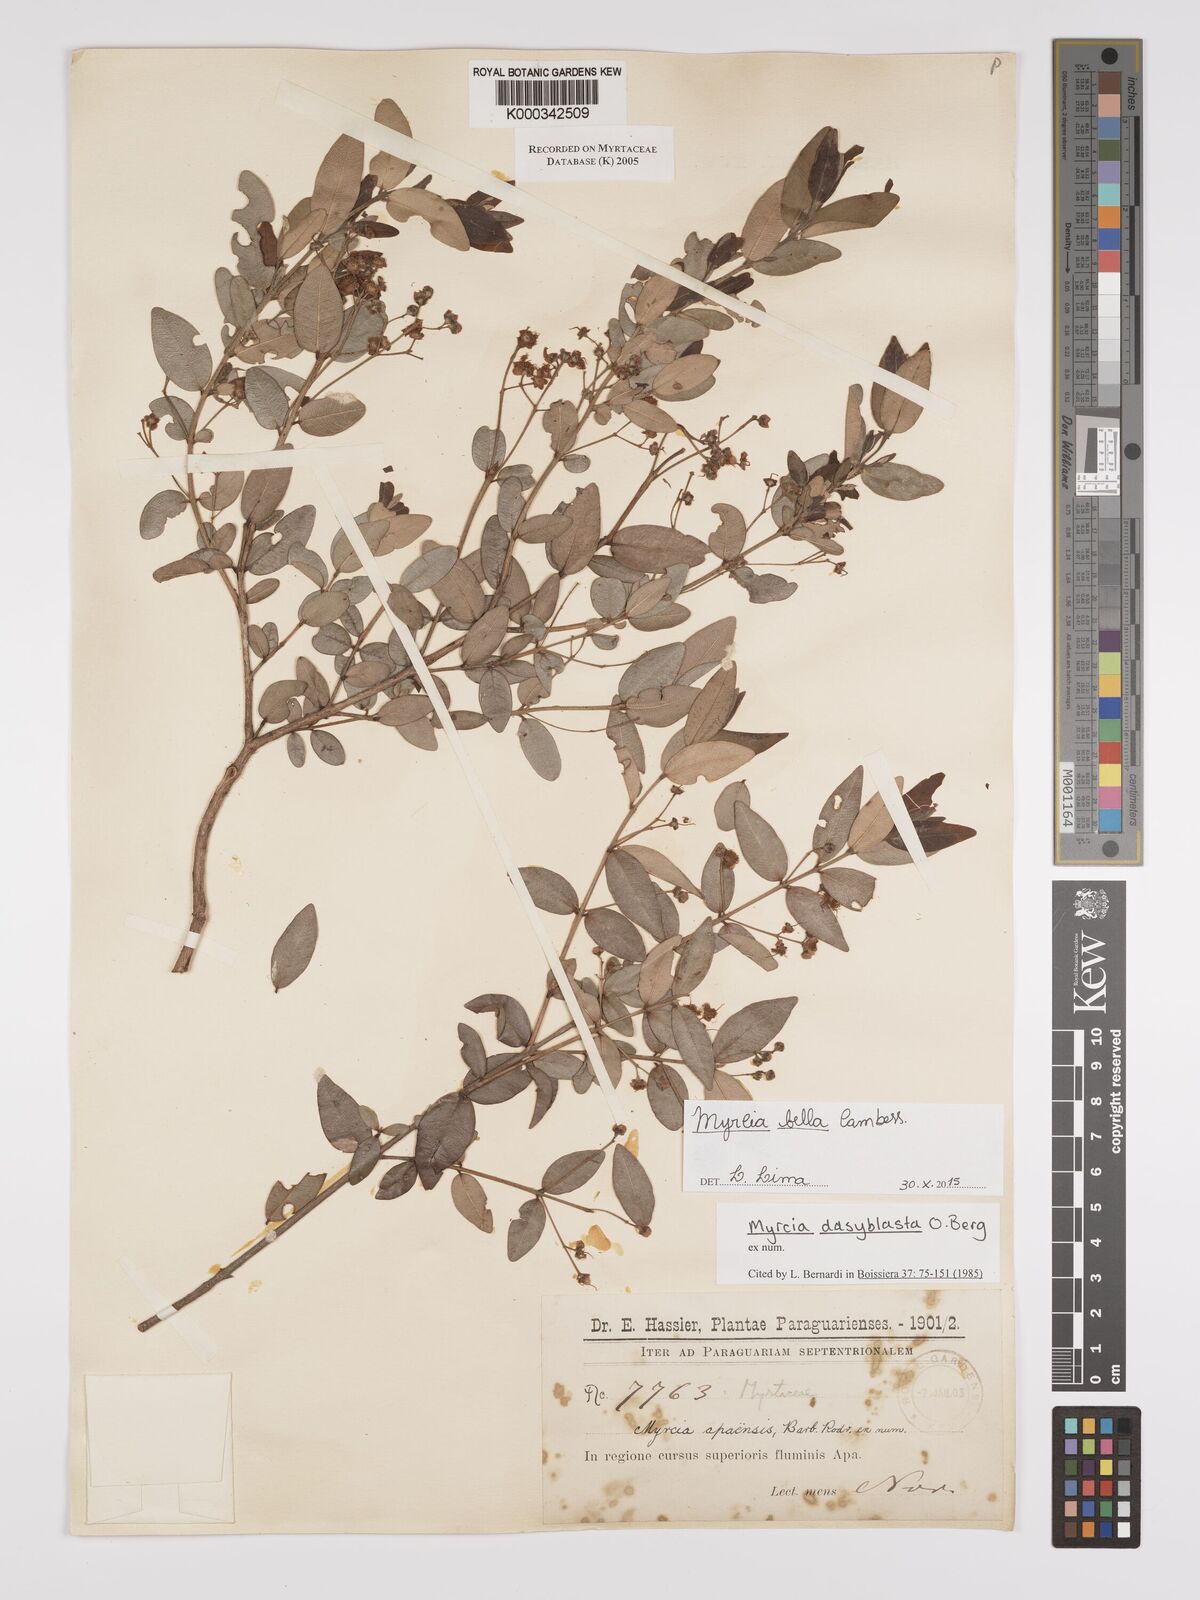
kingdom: Plantae
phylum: Tracheophyta
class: Magnoliopsida
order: Myrtales
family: Myrtaceae
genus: Myrcia
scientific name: Myrcia dasyblasta
